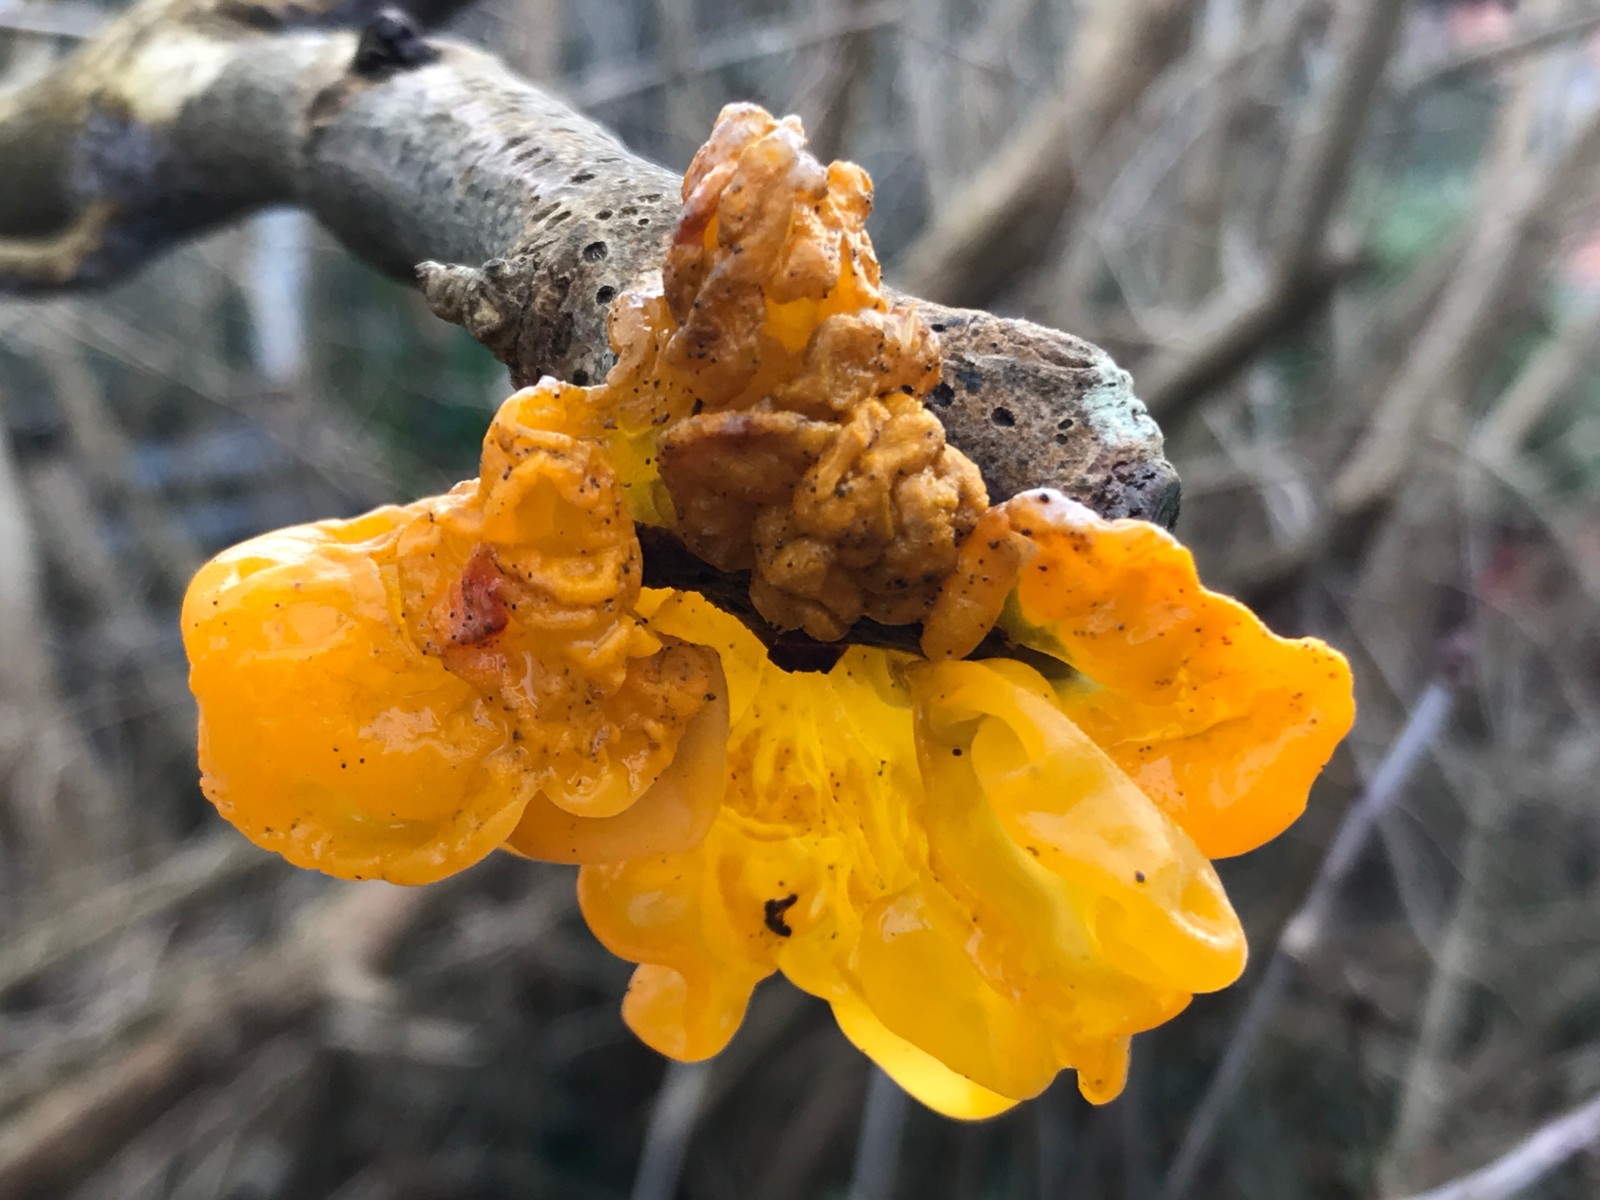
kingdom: Fungi
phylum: Basidiomycota
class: Tremellomycetes
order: Tremellales
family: Tremellaceae
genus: Tremella
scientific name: Tremella mesenterica
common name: gul bævresvamp
